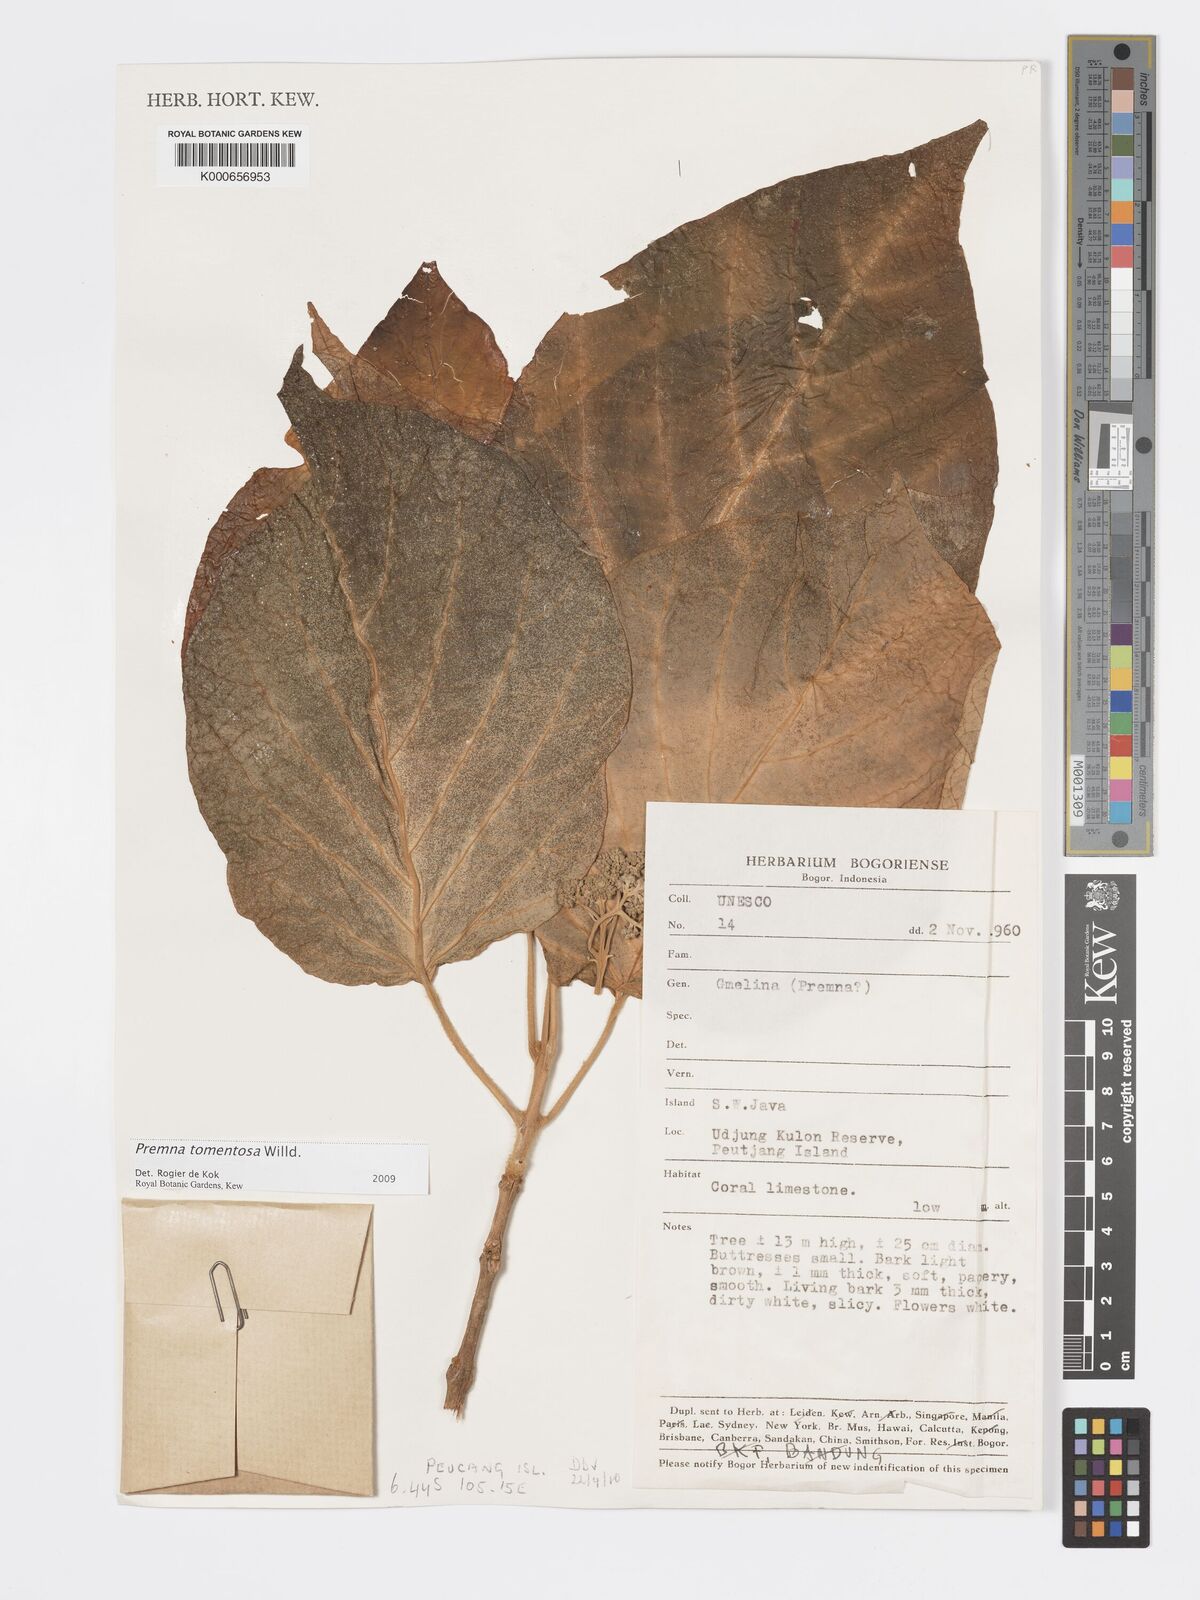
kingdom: Plantae
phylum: Tracheophyta
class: Magnoliopsida
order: Lamiales
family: Lamiaceae
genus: Premna
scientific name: Premna tomentosa
